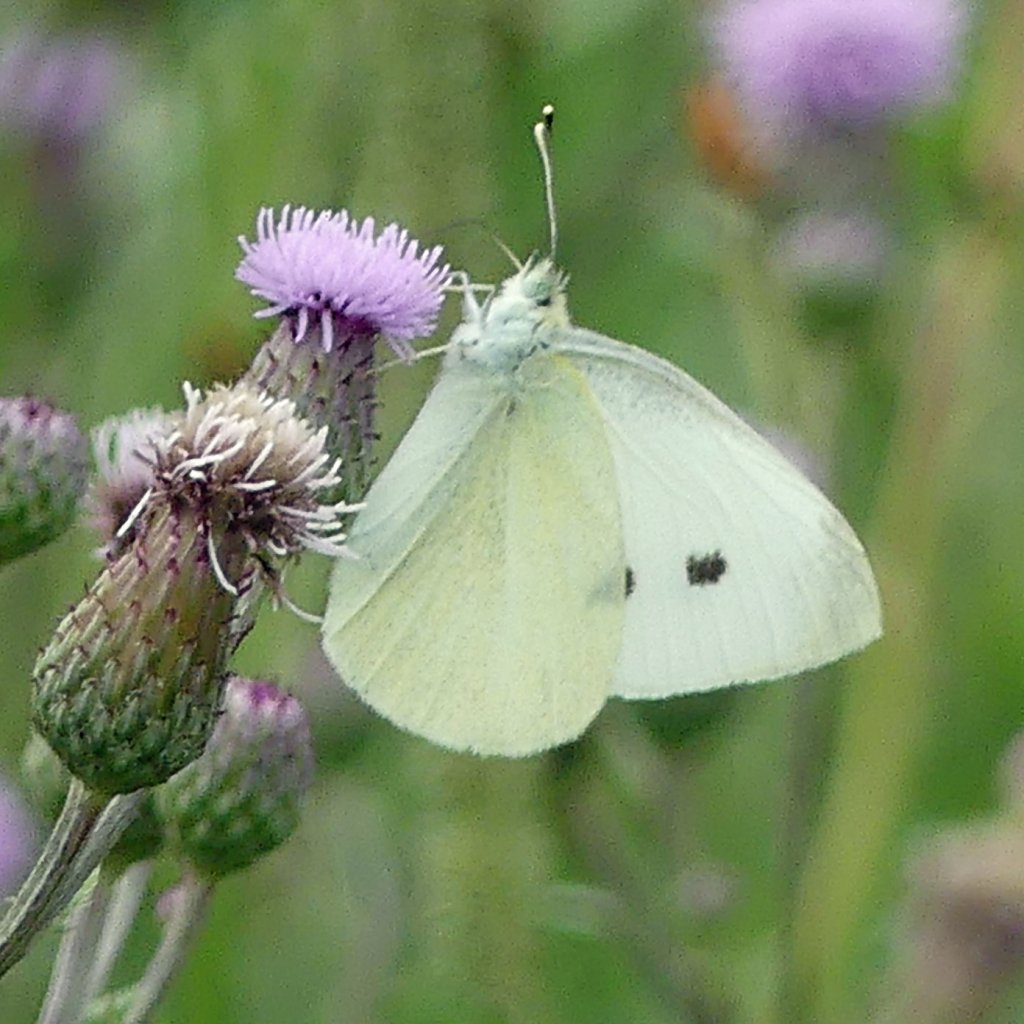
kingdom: Animalia
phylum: Arthropoda
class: Insecta
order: Lepidoptera
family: Pieridae
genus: Pieris
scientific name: Pieris rapae
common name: Cabbage White
